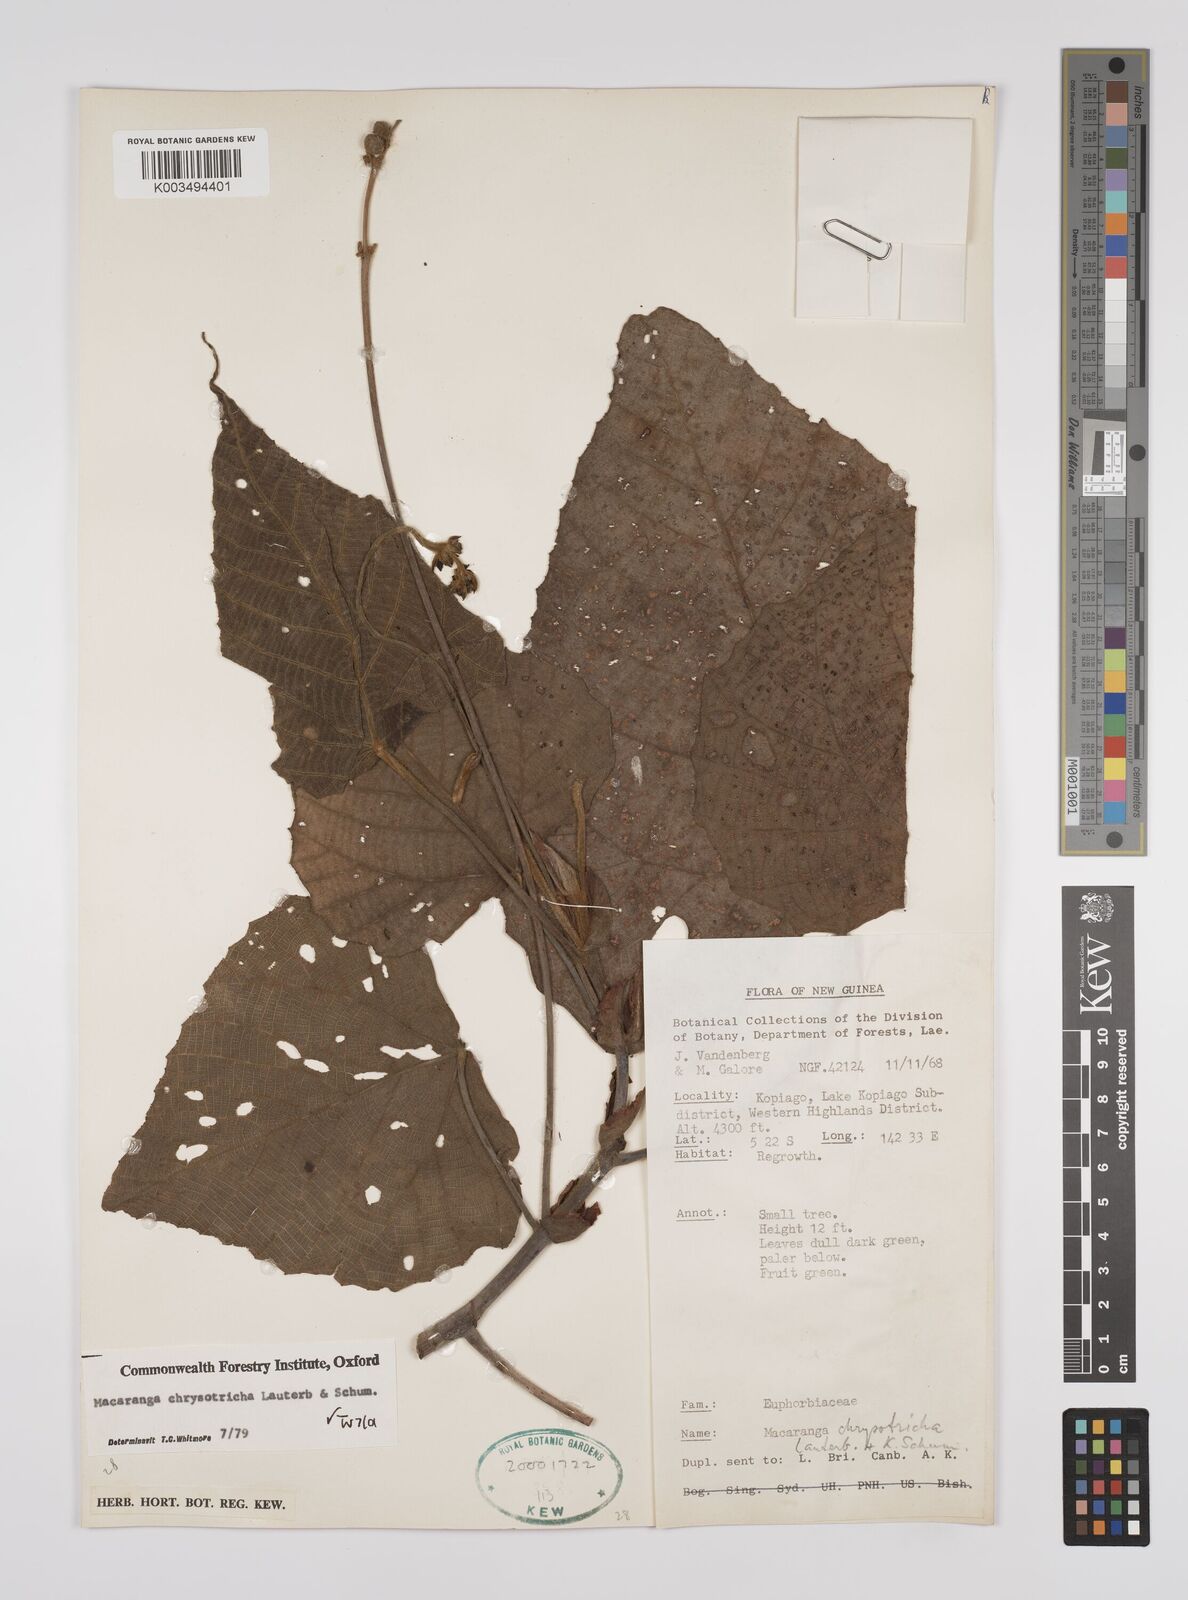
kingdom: Plantae
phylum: Tracheophyta
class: Magnoliopsida
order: Malpighiales
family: Euphorbiaceae
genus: Macaranga
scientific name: Macaranga chrysotricha
